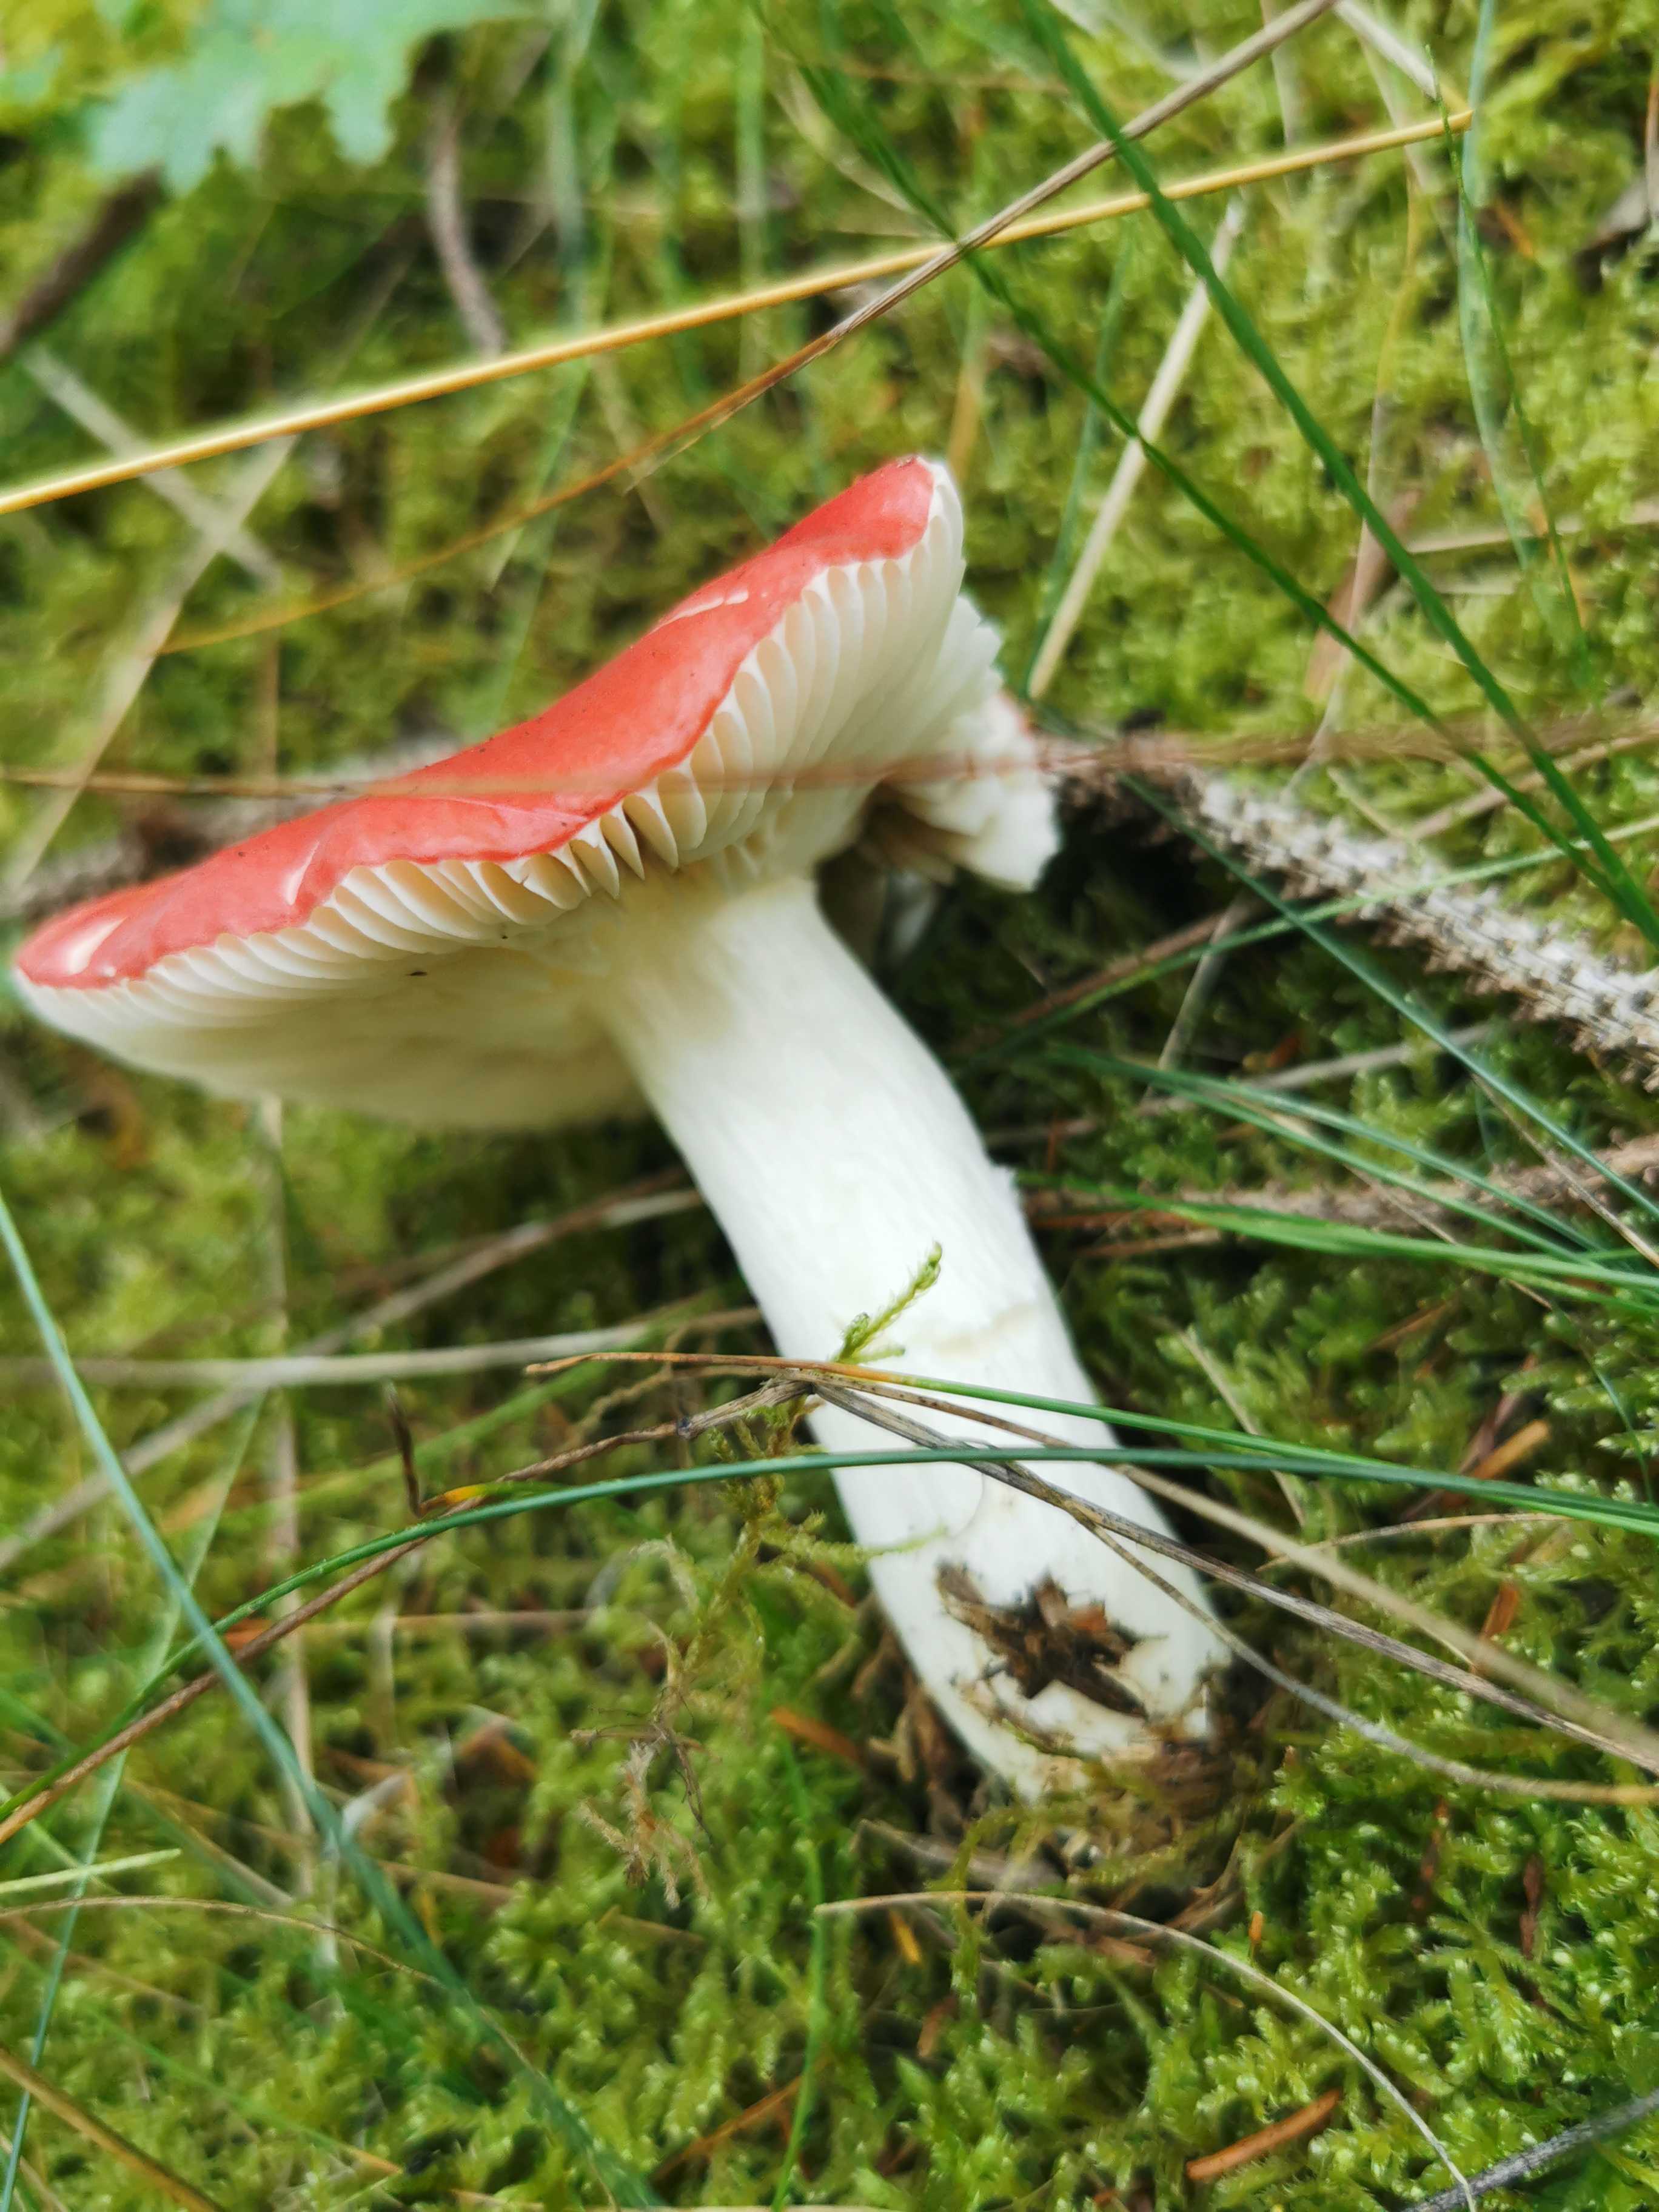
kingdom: Fungi
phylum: Basidiomycota
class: Agaricomycetes
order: Russulales
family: Russulaceae
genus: Russula
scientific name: Russula emetica
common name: stor gift-skørhat
